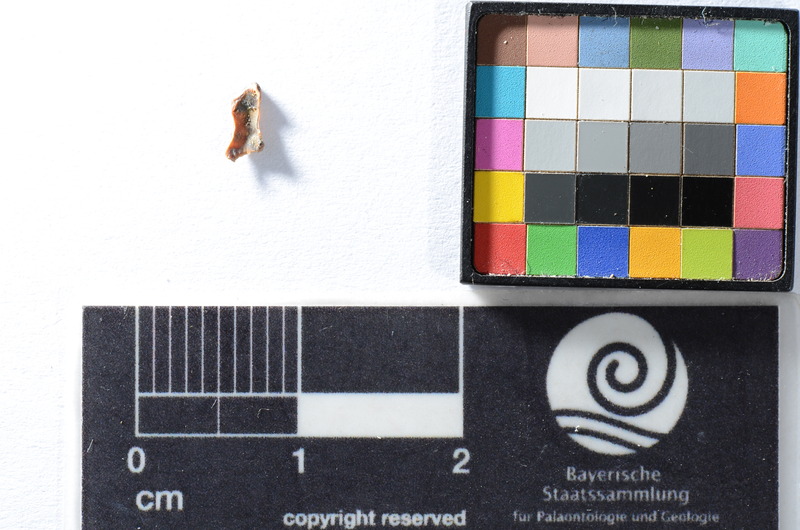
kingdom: Animalia
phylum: Chordata
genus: Soricidens
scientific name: Soricidens
